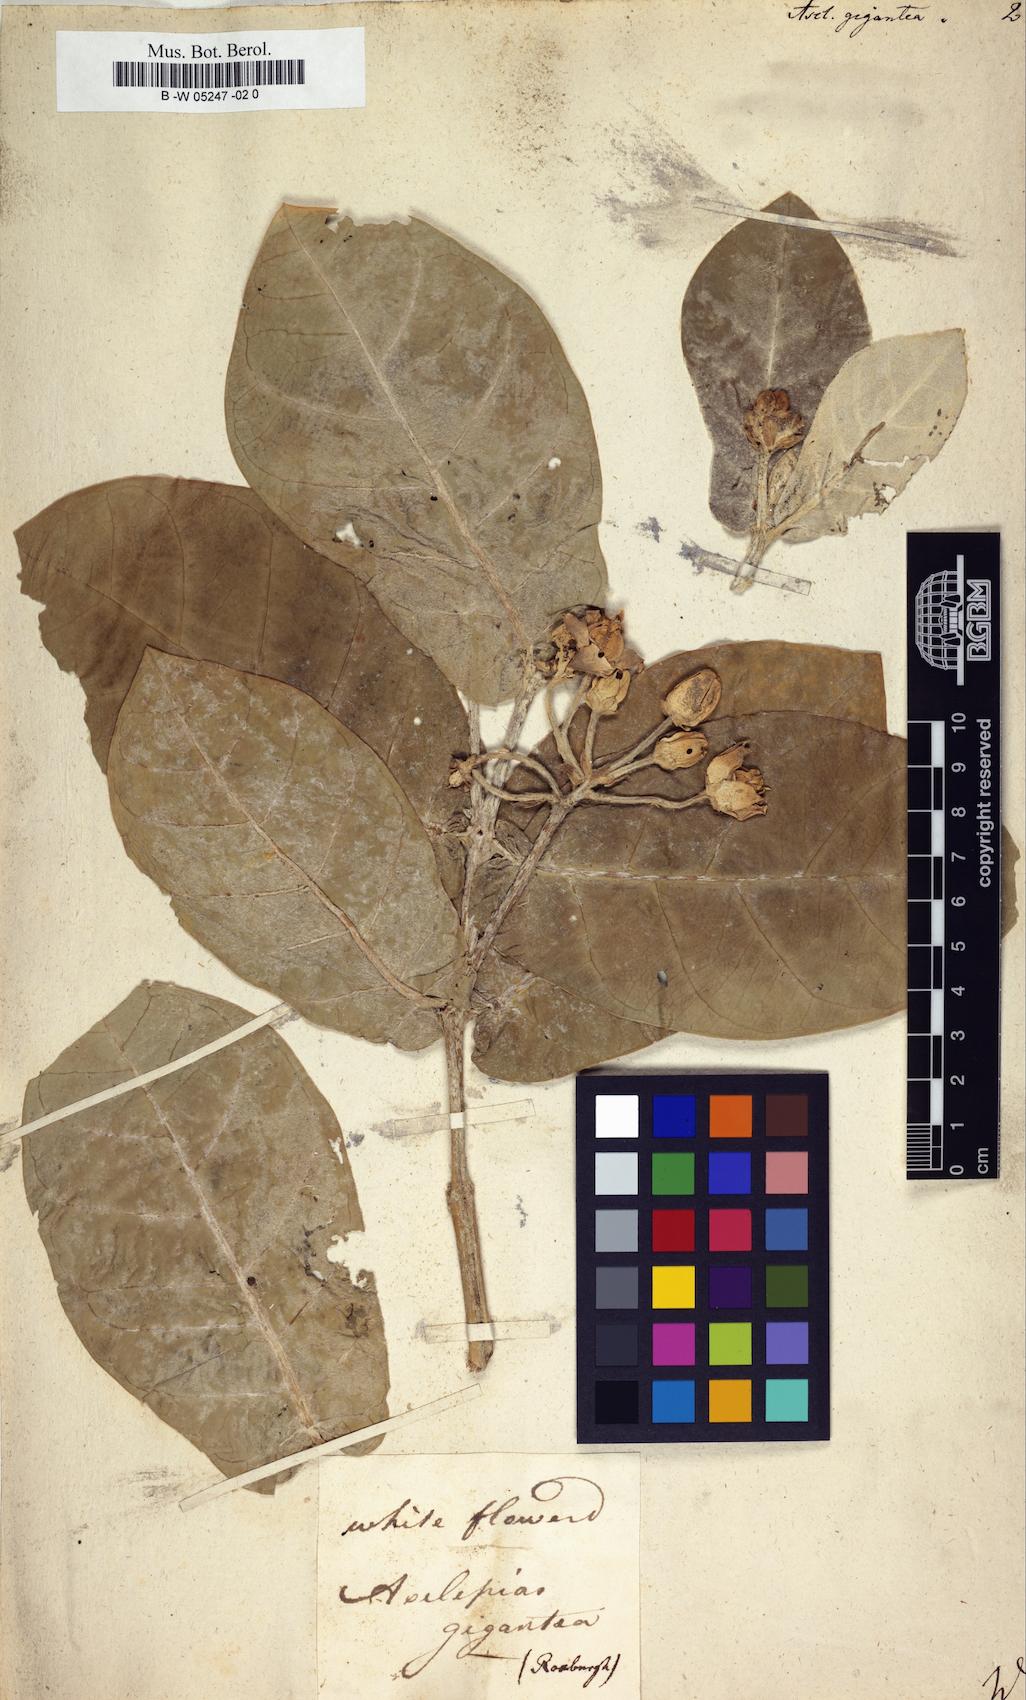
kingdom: Plantae
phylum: Tracheophyta
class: Magnoliopsida
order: Gentianales
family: Apocynaceae
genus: Calotropis
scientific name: Calotropis procera
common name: Roostertree
